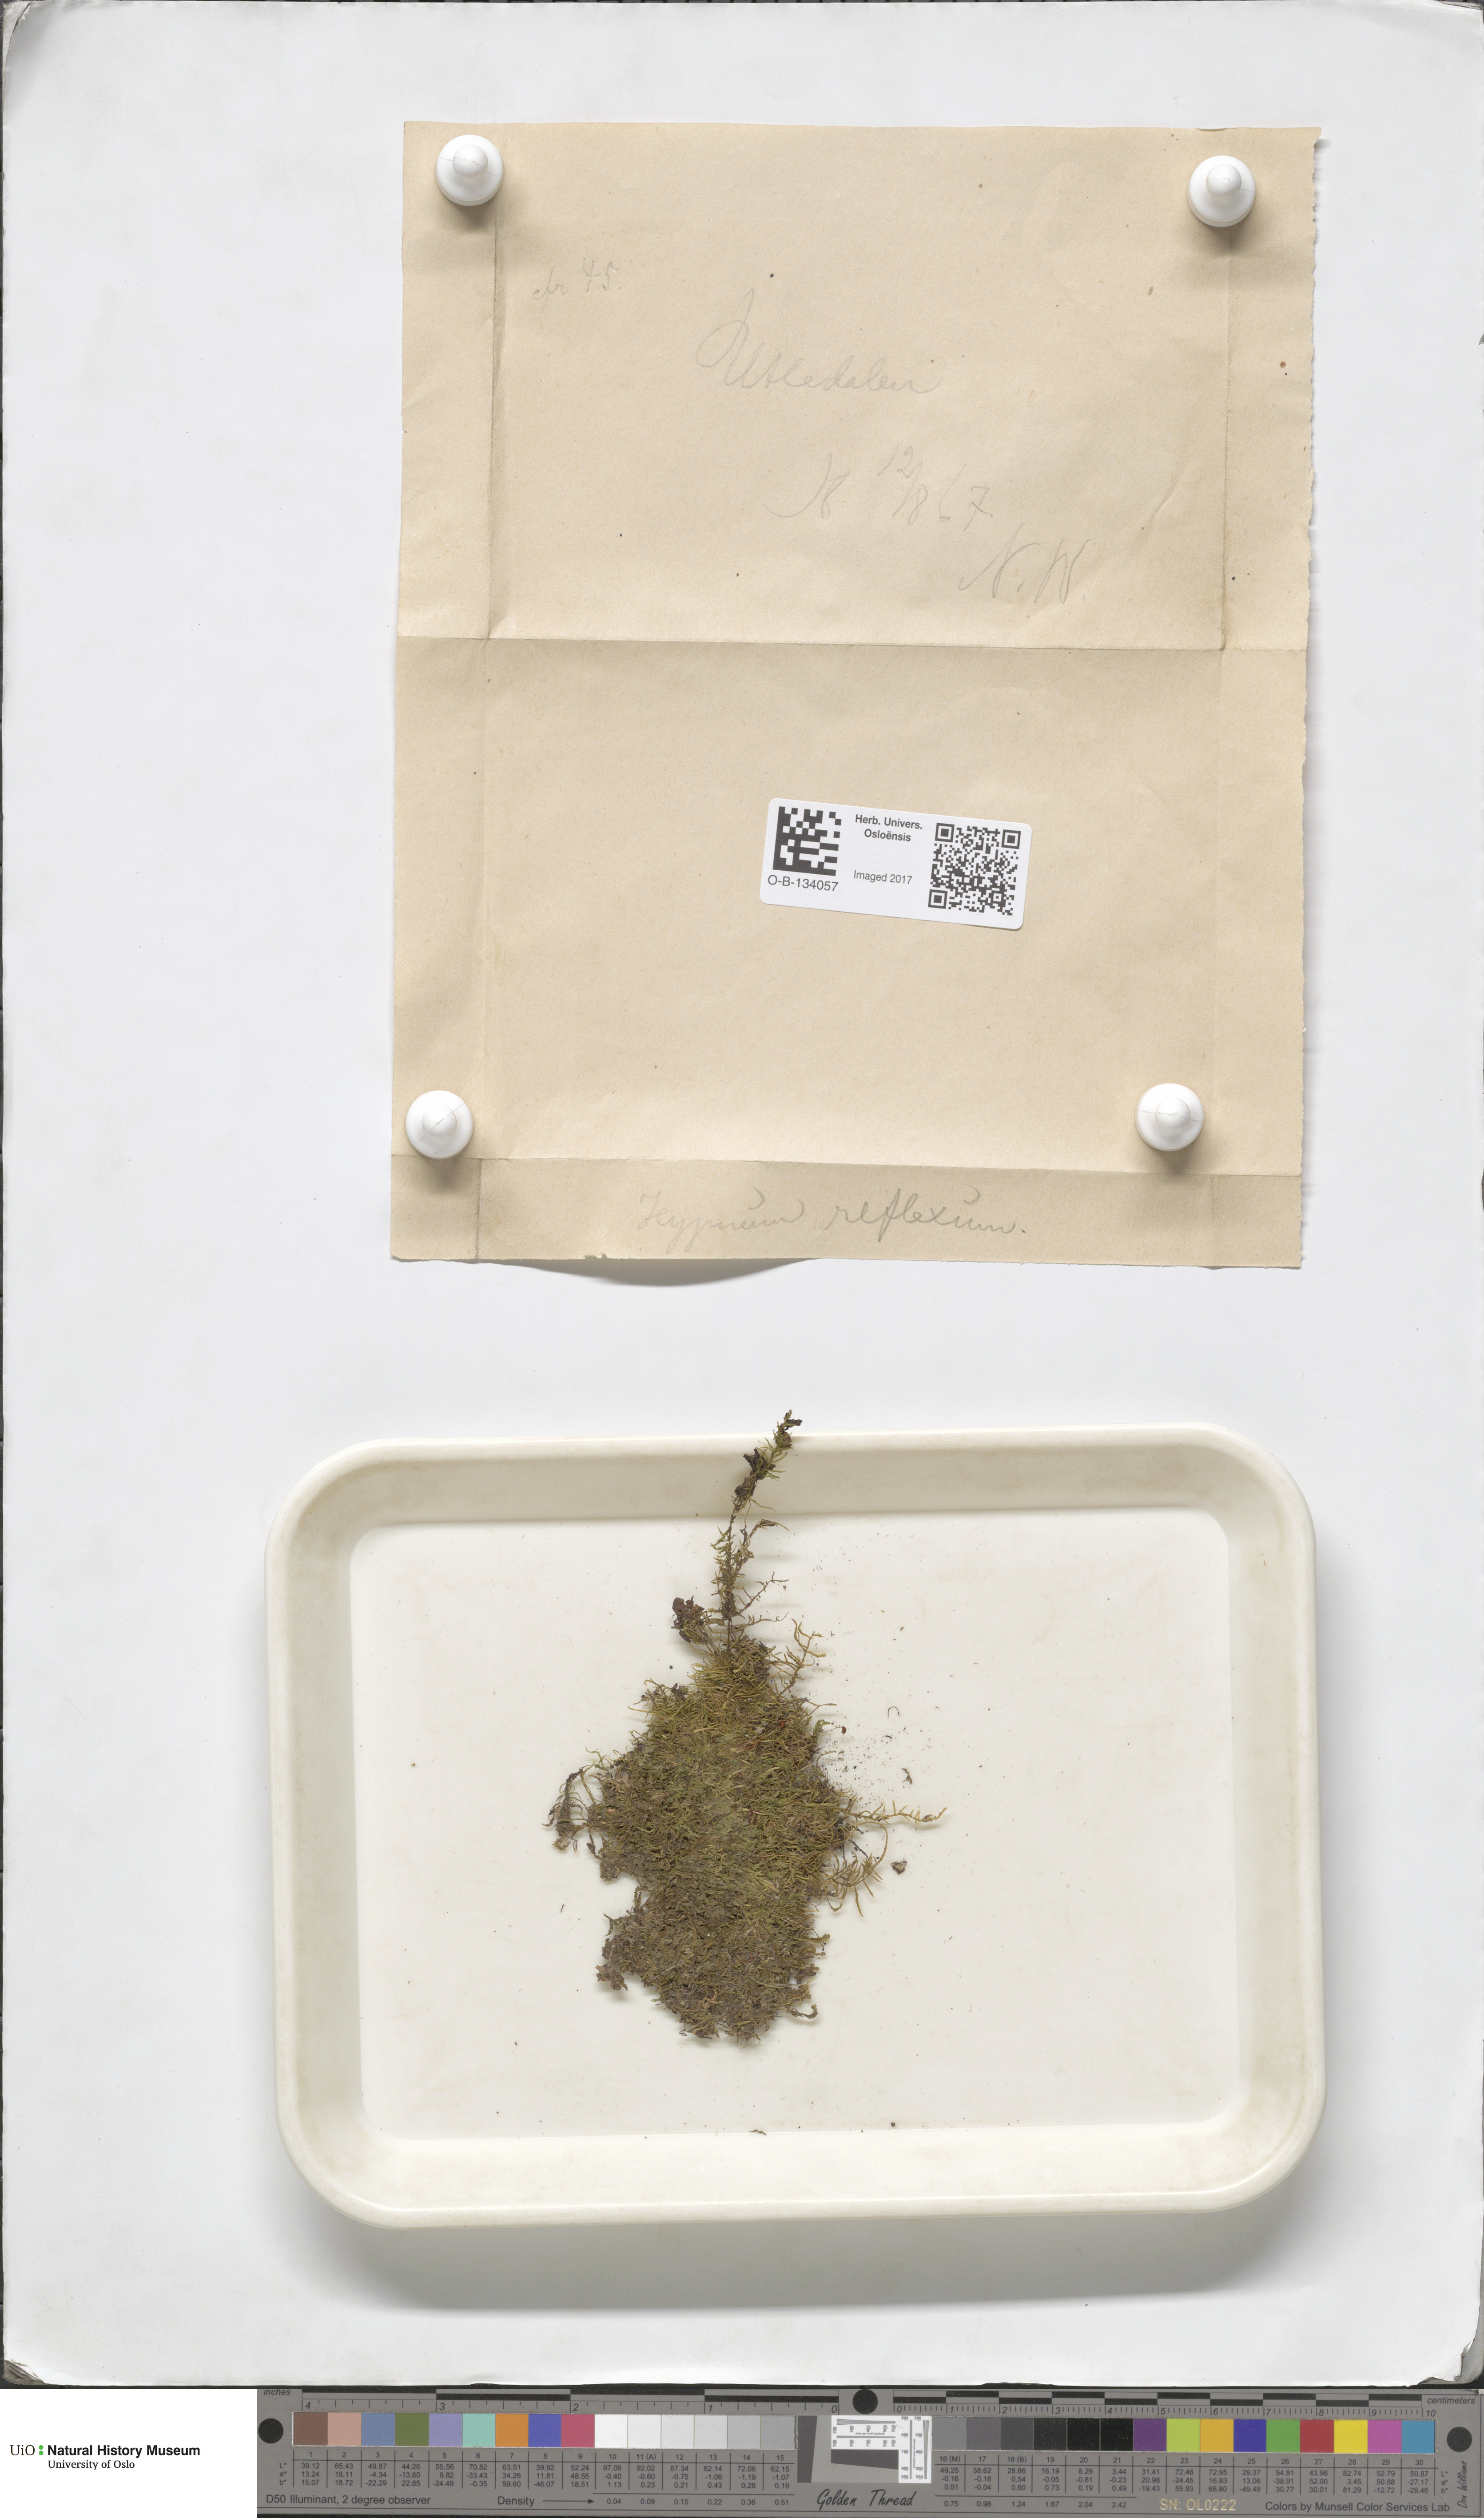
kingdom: Plantae
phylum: Bryophyta
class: Bryopsida
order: Hypnales
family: Brachytheciaceae
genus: Sciuro-hypnum
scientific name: Sciuro-hypnum reflexum
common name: Reflexed feather-moss
